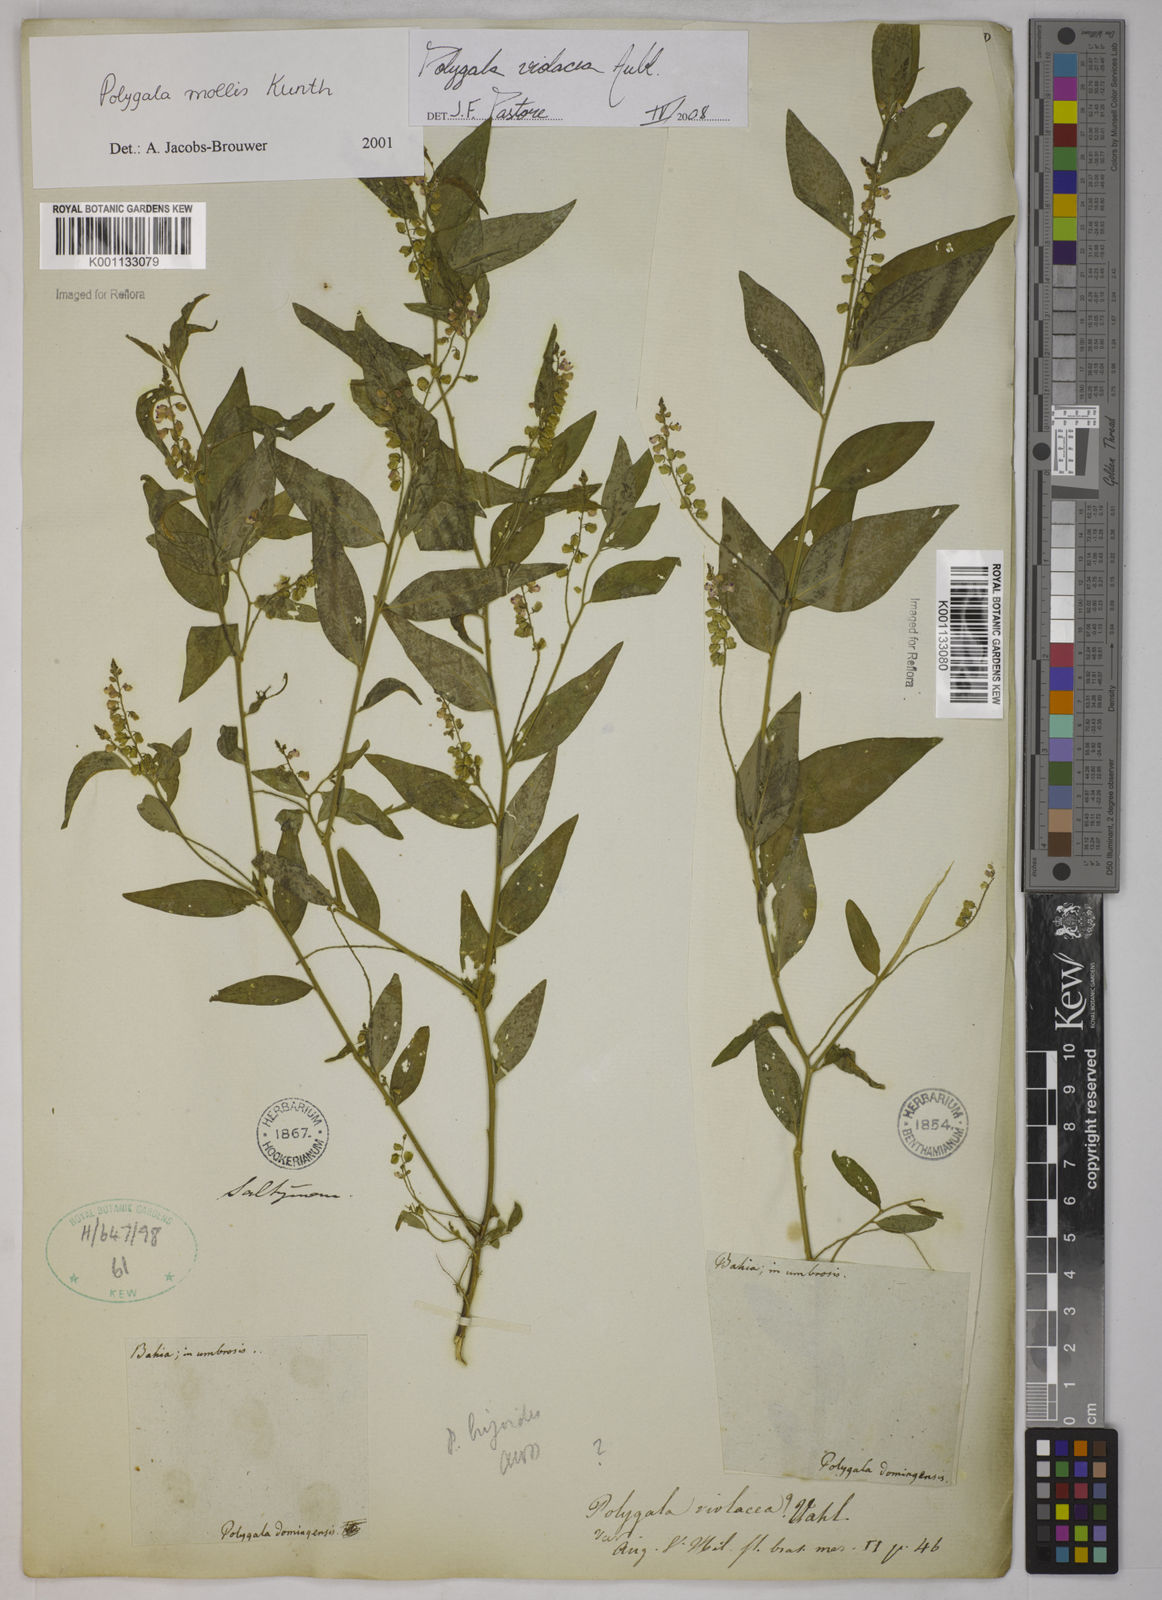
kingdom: Plantae
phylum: Tracheophyta
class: Magnoliopsida
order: Fabales
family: Polygalaceae
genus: Asemeia
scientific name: Asemeia violacea
